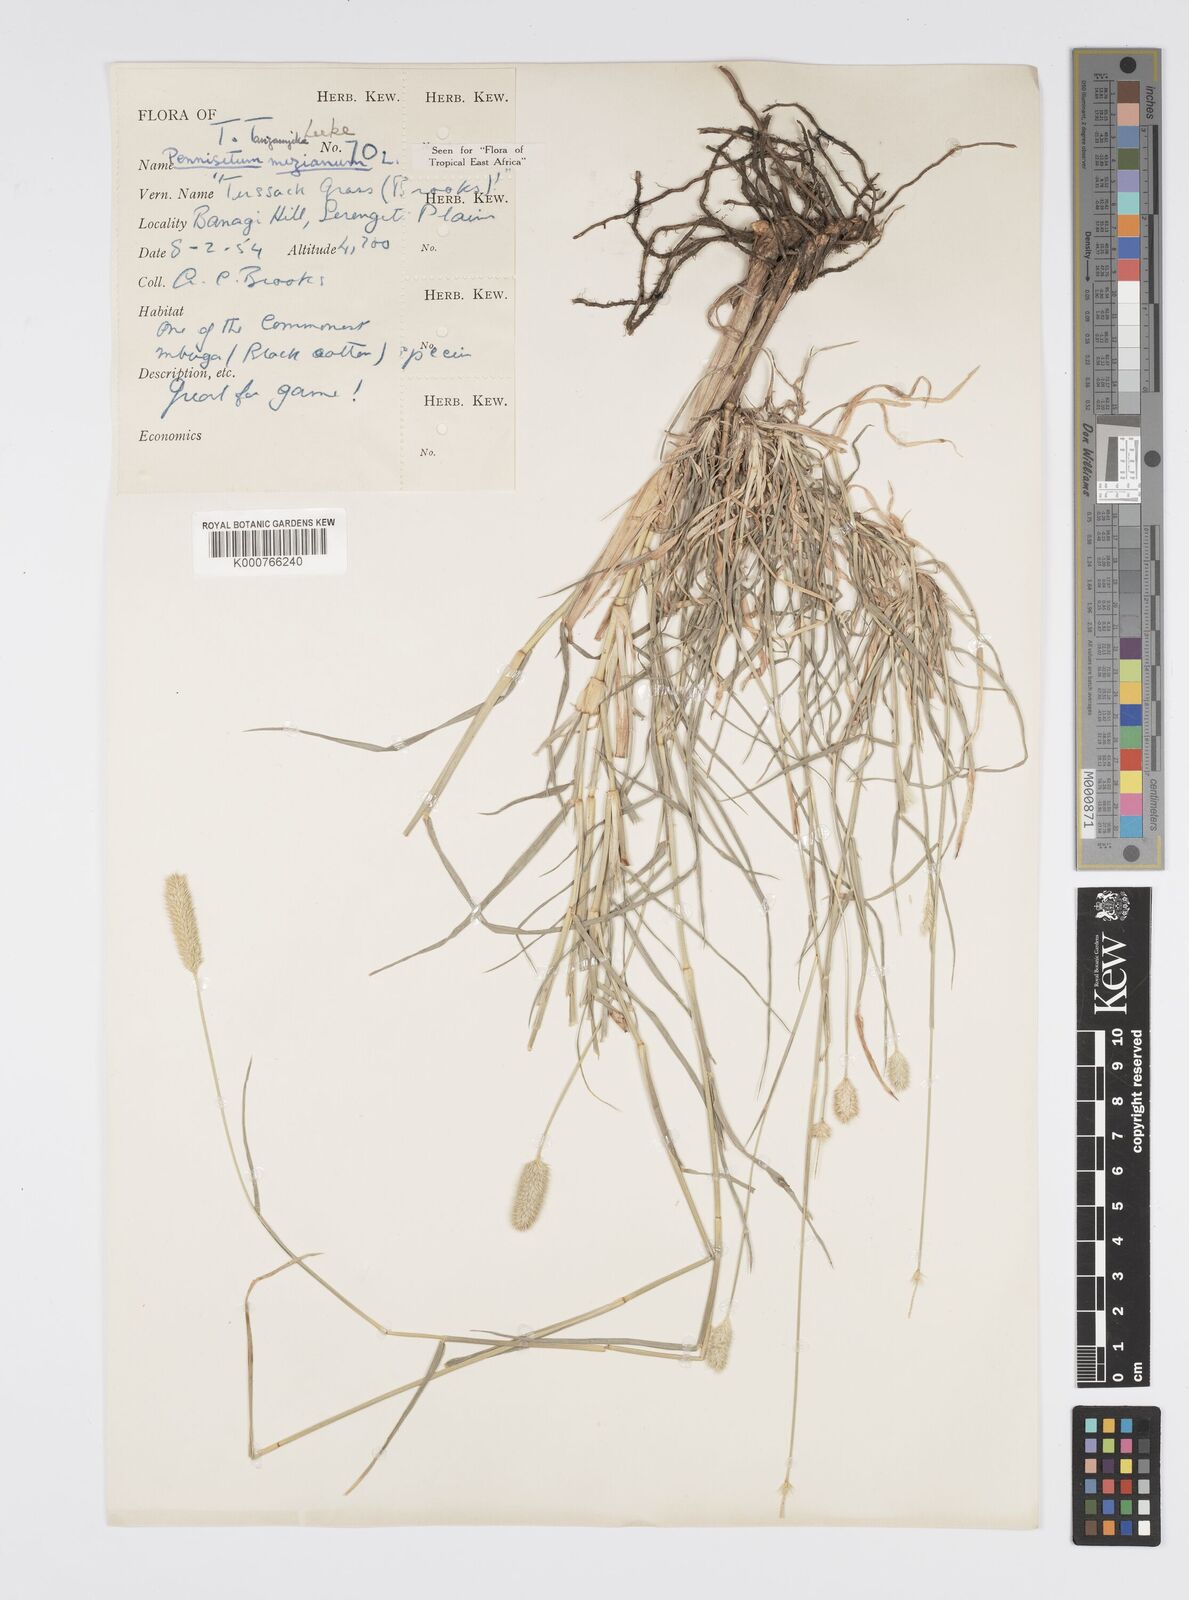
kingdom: Plantae
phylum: Tracheophyta
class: Liliopsida
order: Poales
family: Poaceae
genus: Cenchrus
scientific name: Cenchrus mezianus
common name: Bamboo grass
